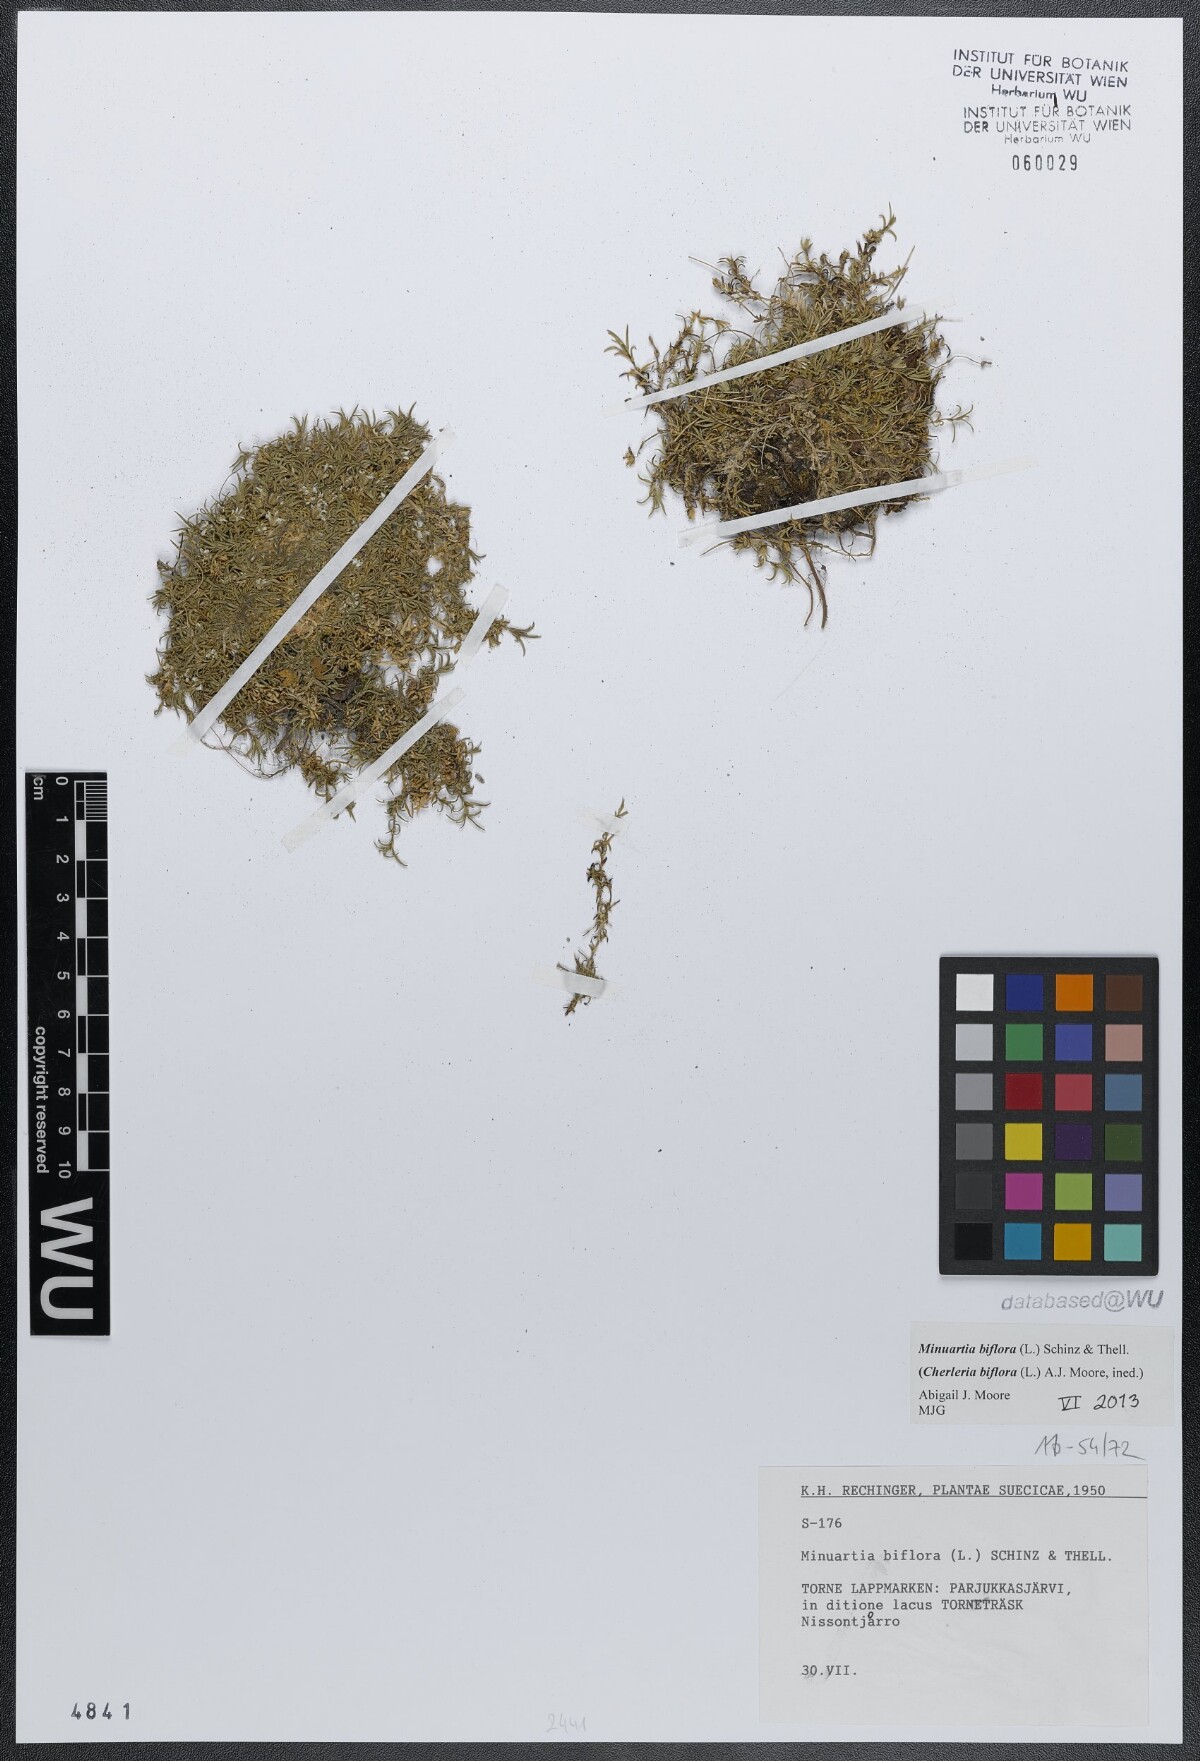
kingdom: Plantae
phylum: Tracheophyta
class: Magnoliopsida
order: Caryophyllales
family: Caryophyllaceae
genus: Cherleria
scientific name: Cherleria biflora
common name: Mountain sandwort
